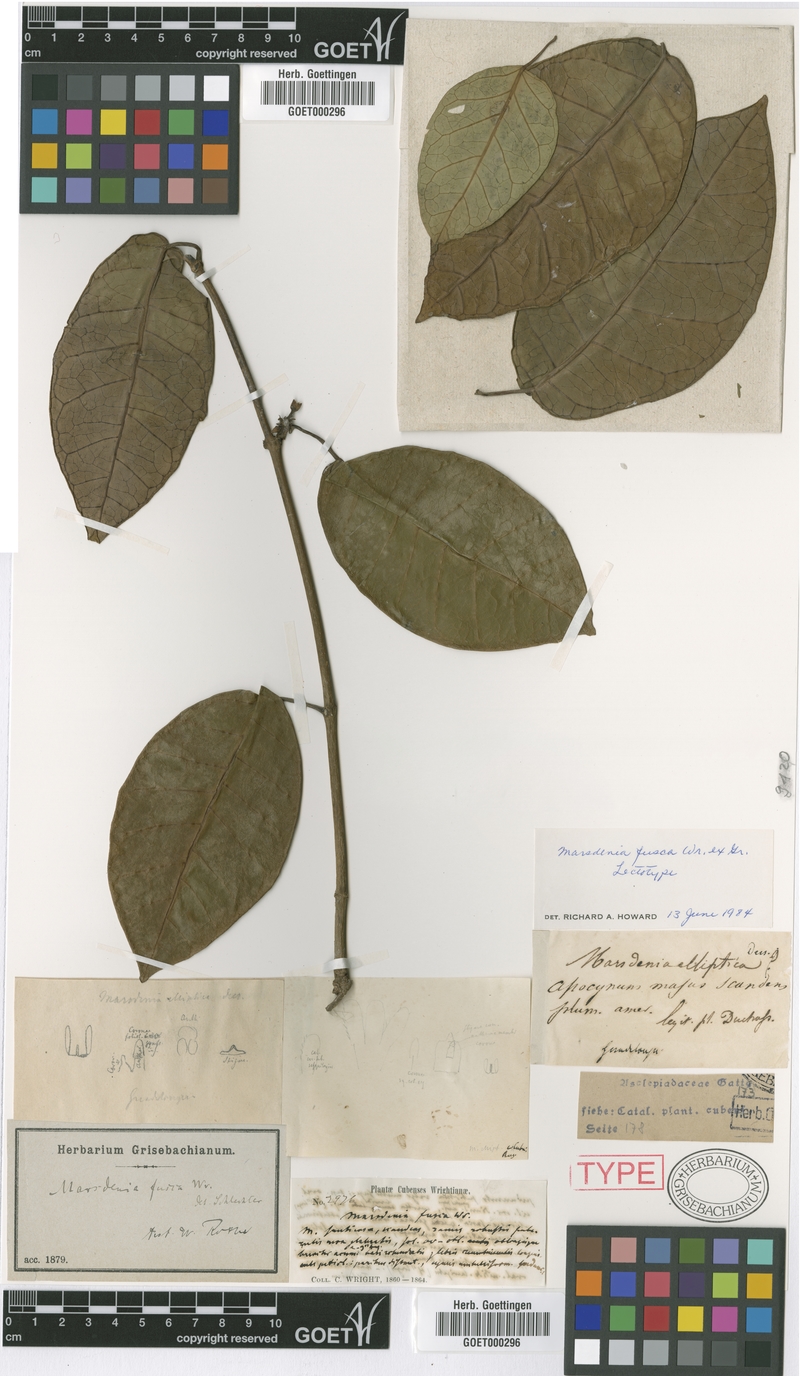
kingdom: Plantae
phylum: Tracheophyta
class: Magnoliopsida
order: Gentianales
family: Apocynaceae
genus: Ruehssia
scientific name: Ruehssia fusca
